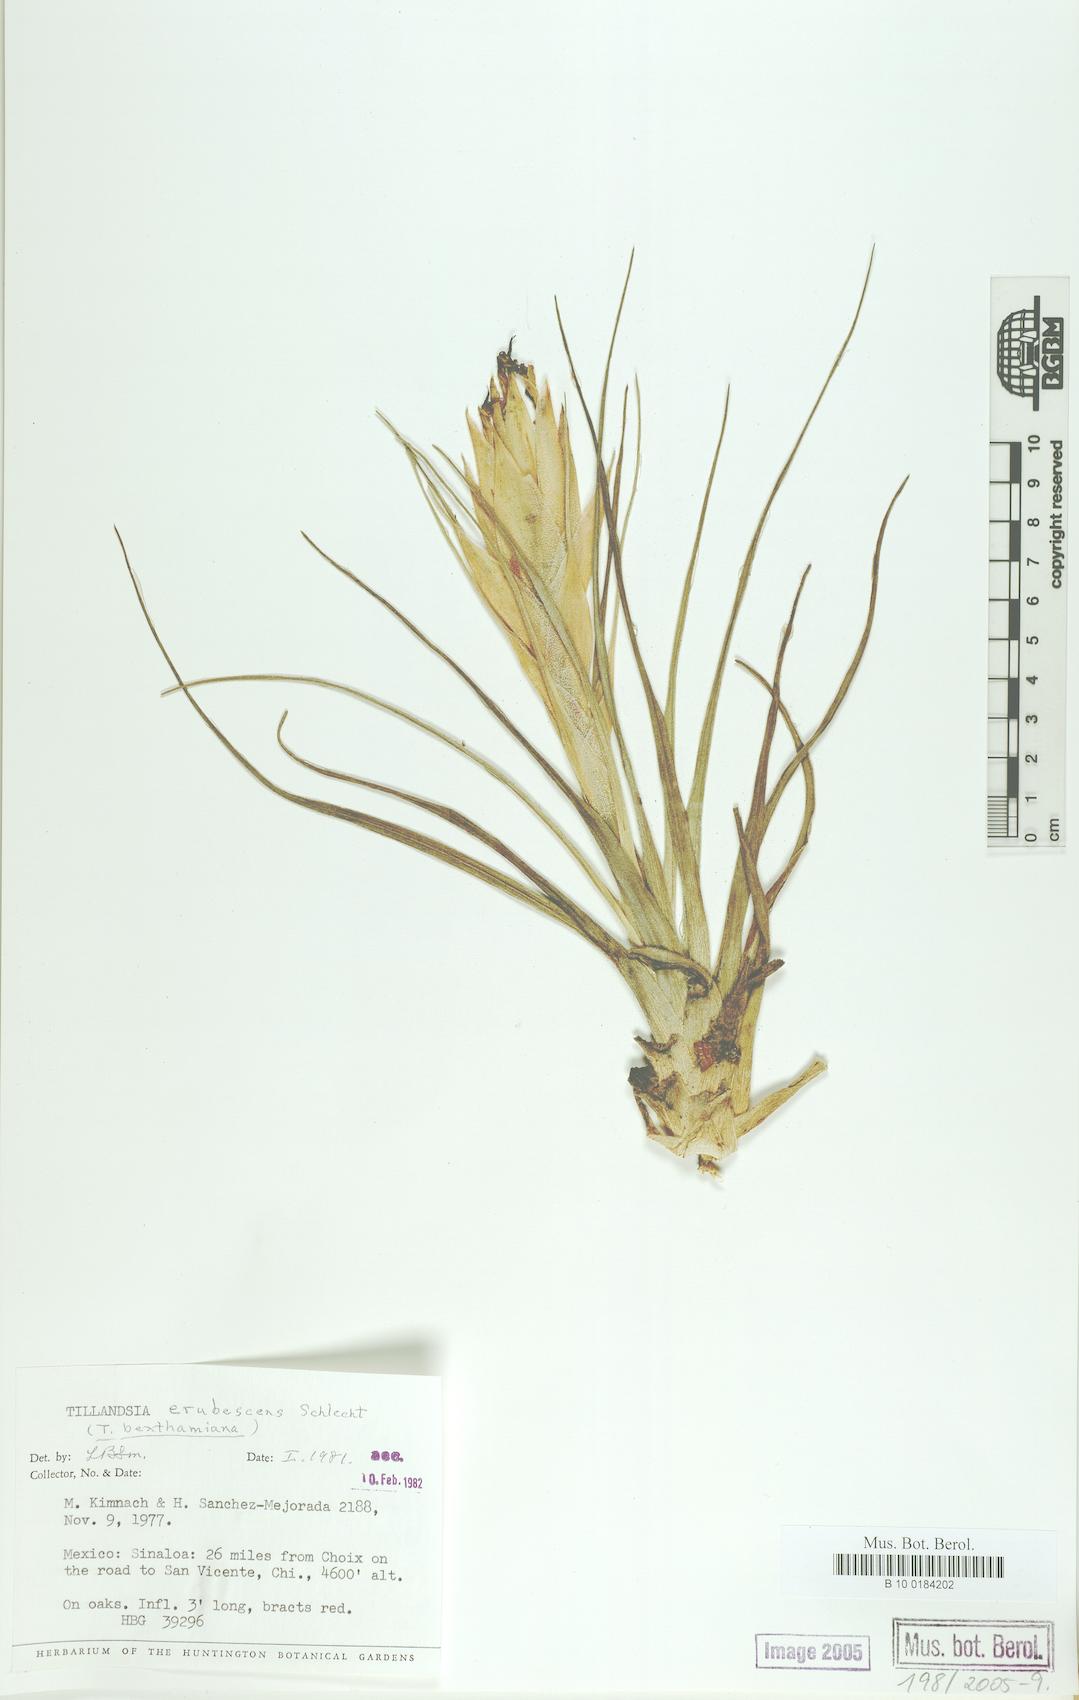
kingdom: Plantae
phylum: Tracheophyta
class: Liliopsida
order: Poales
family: Bromeliaceae
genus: Tillandsia
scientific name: Tillandsia erubescens
